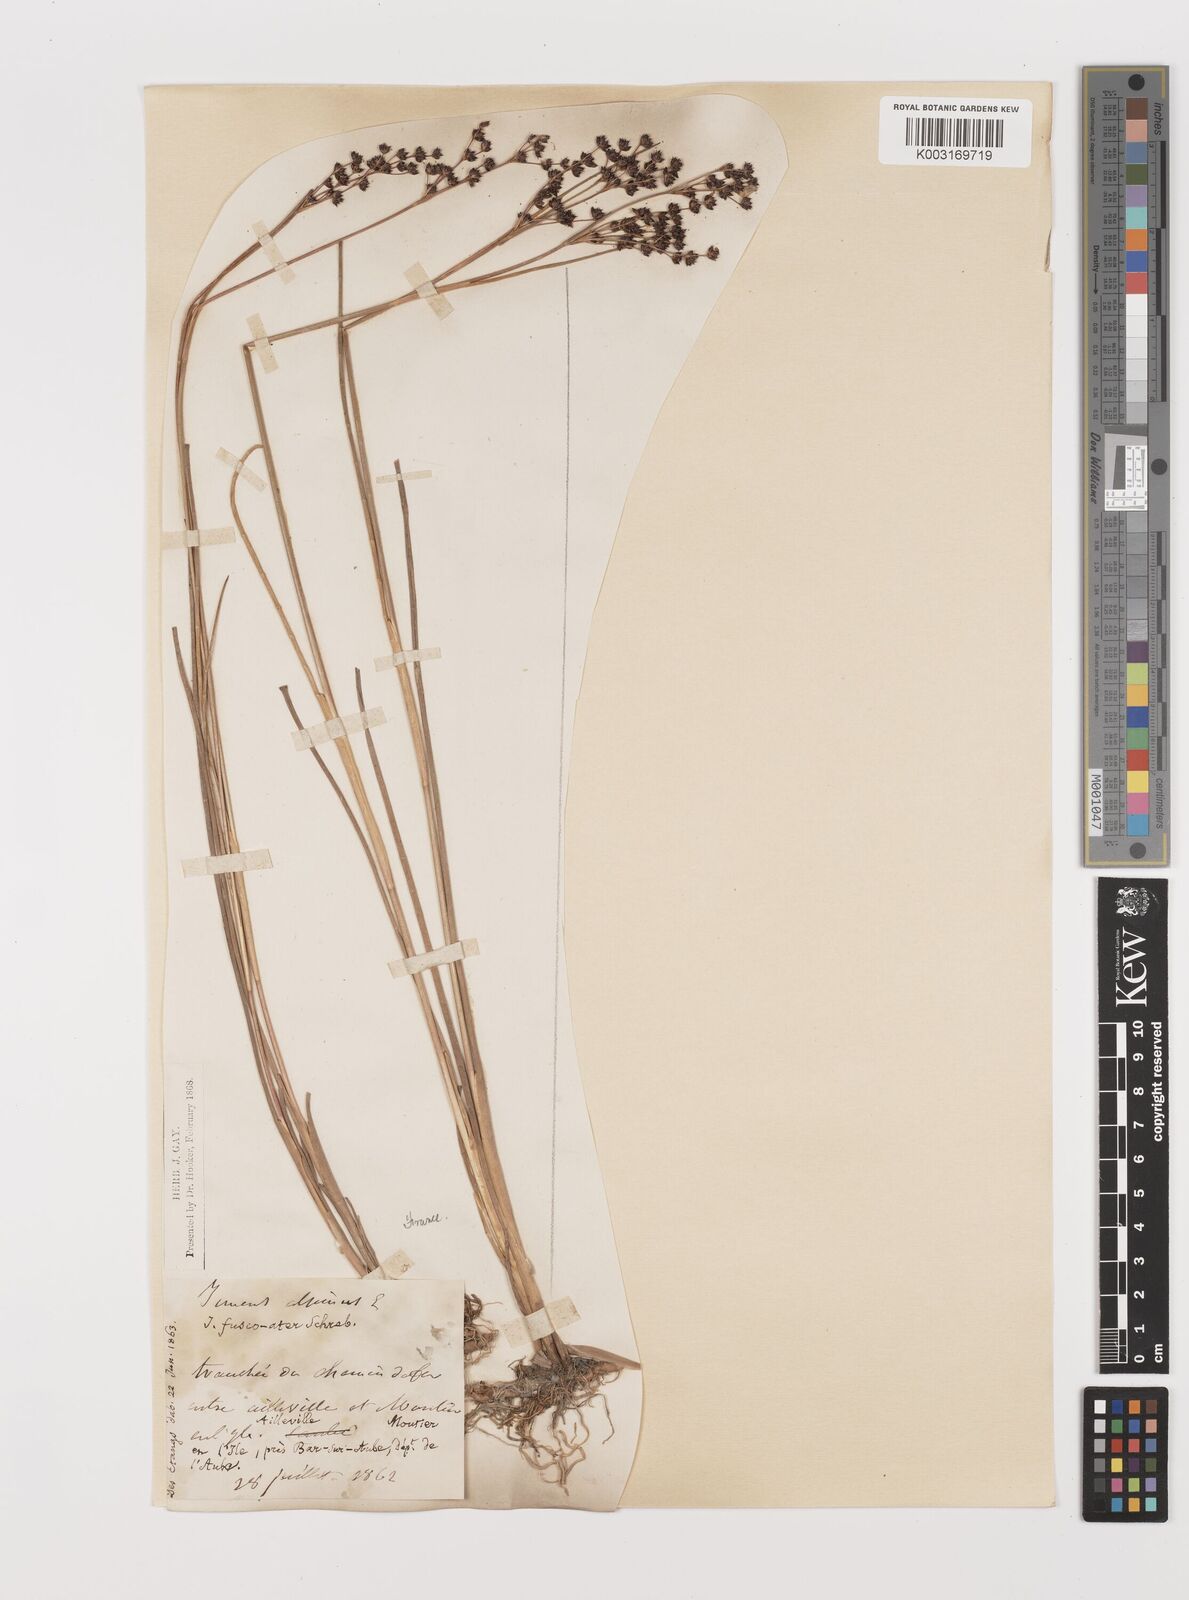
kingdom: Plantae
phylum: Tracheophyta
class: Liliopsida
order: Poales
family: Juncaceae
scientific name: Juncaceae
